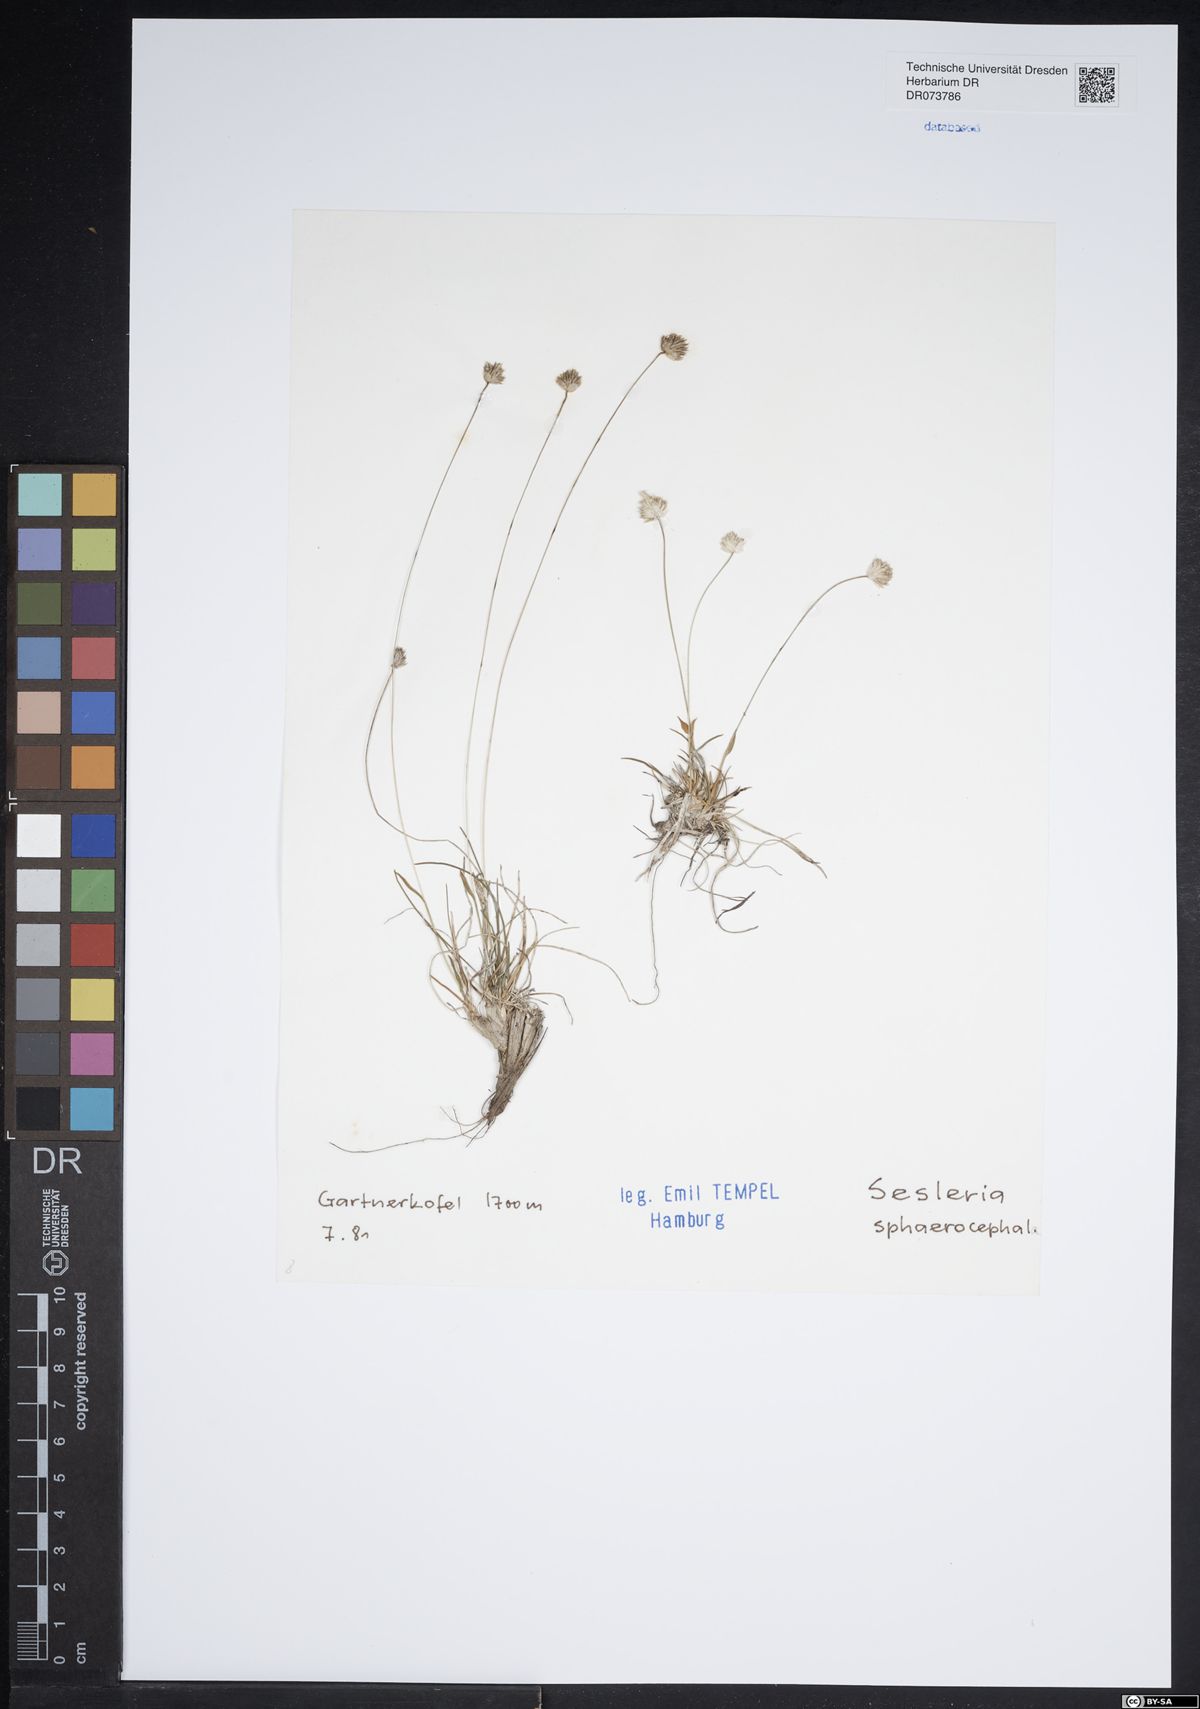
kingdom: Plantae
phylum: Tracheophyta
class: Liliopsida
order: Poales
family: Poaceae
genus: Sesleriella
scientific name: Sesleriella sphaerocephala
